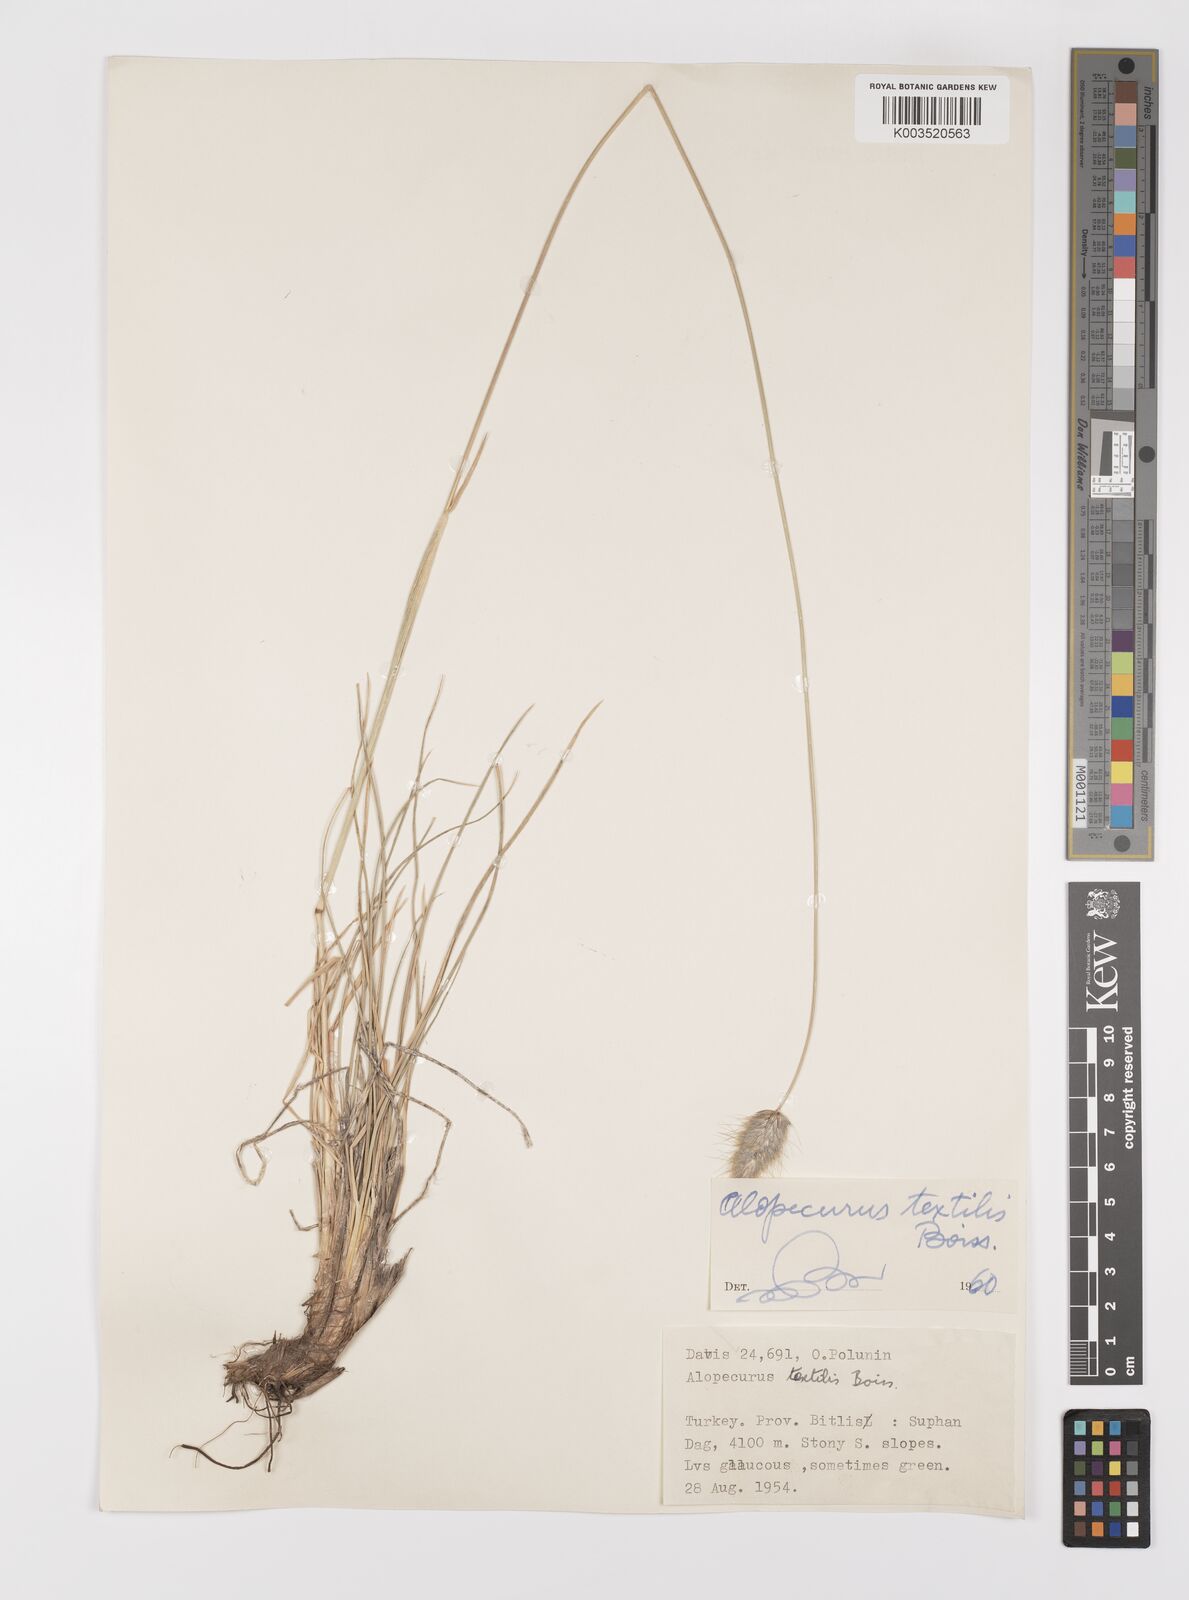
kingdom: Plantae
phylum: Tracheophyta
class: Liliopsida
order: Poales
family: Poaceae
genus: Alopecurus
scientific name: Alopecurus textilis
